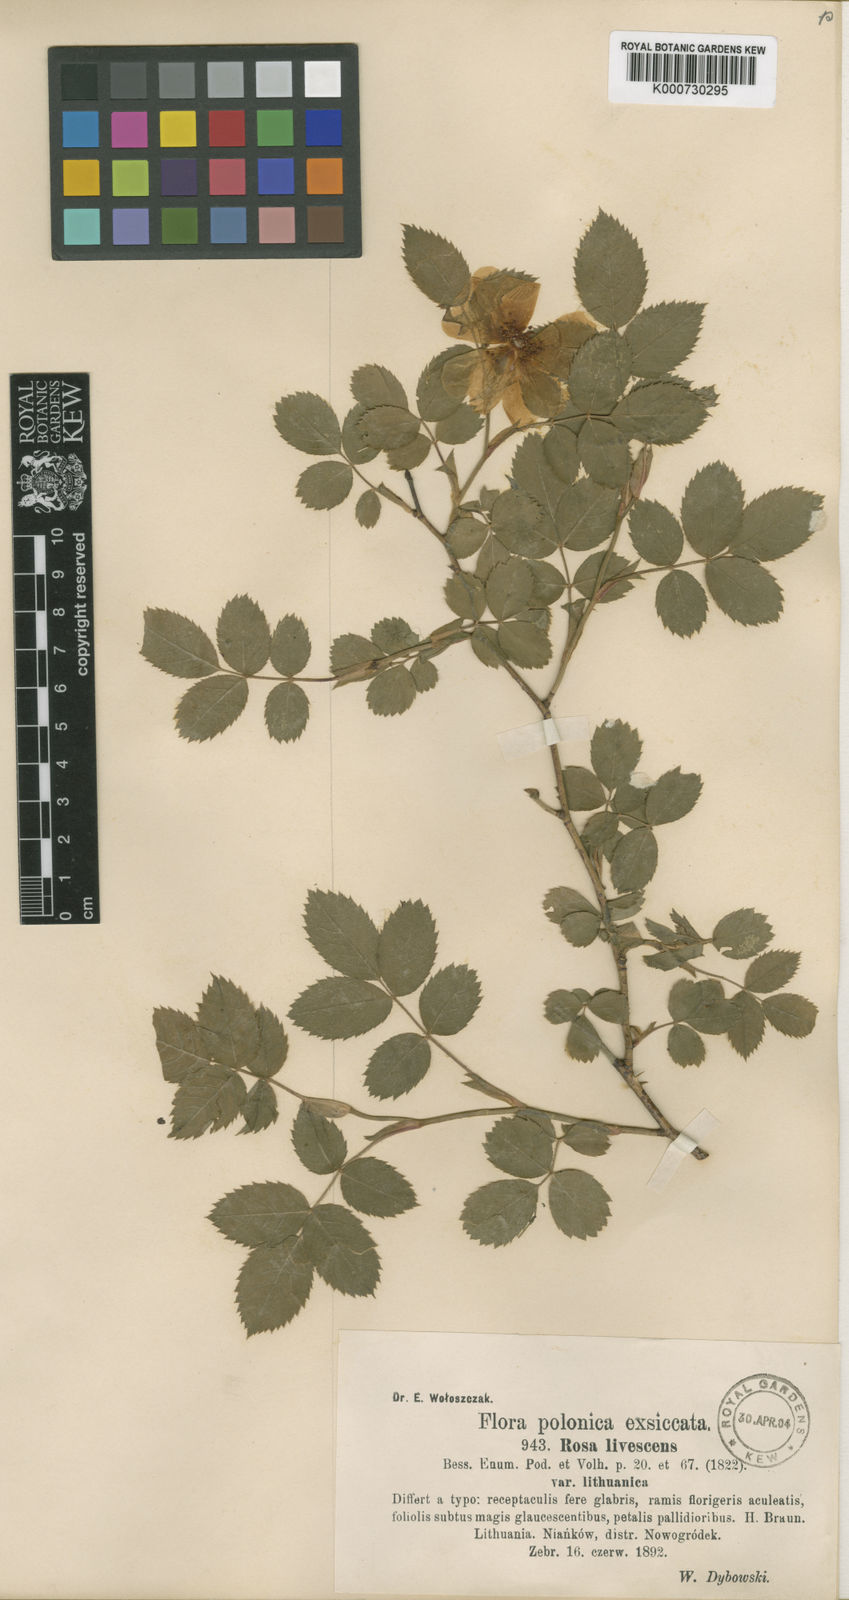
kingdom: Plantae
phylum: Tracheophyta
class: Magnoliopsida
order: Rosales
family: Rosaceae
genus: Rosa
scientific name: Rosa marginata
